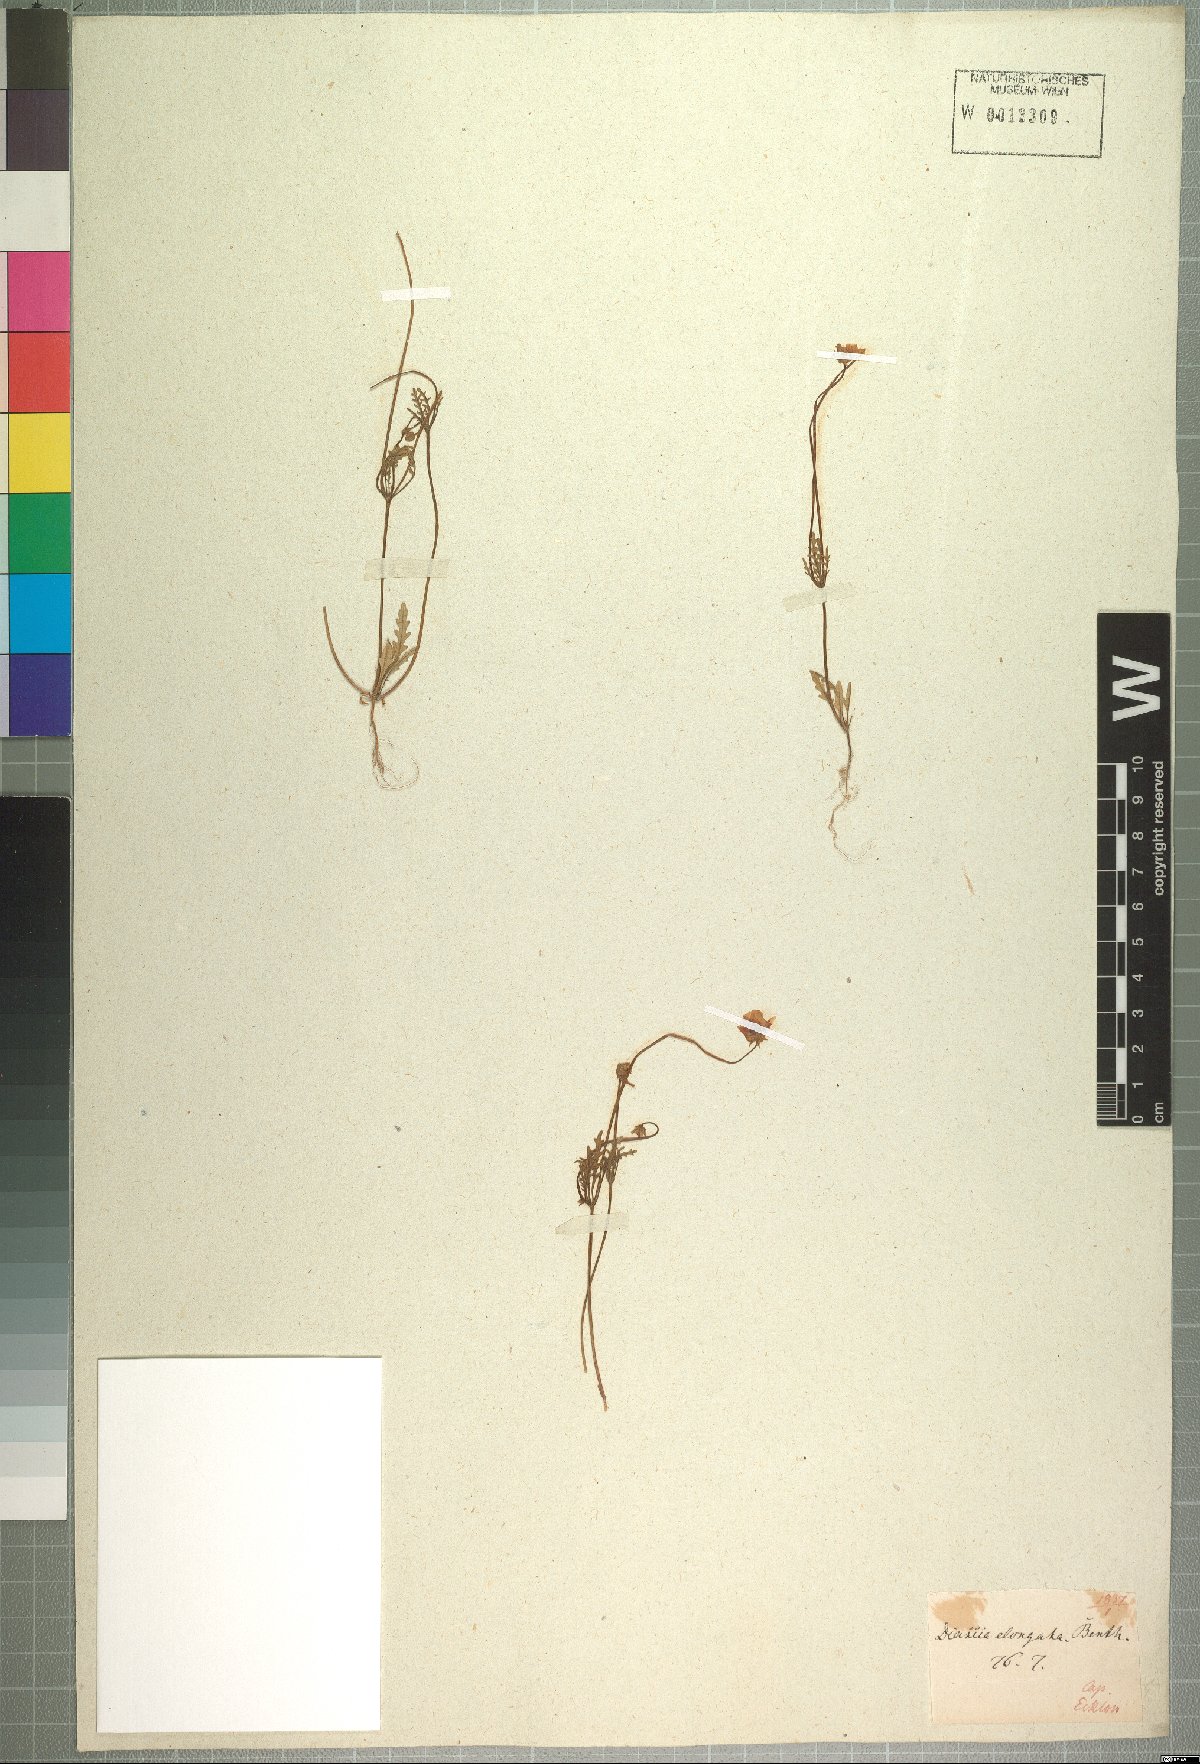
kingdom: Plantae
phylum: Tracheophyta
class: Magnoliopsida
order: Lamiales
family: Scrophulariaceae
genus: Diascia
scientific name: Diascia elongata
